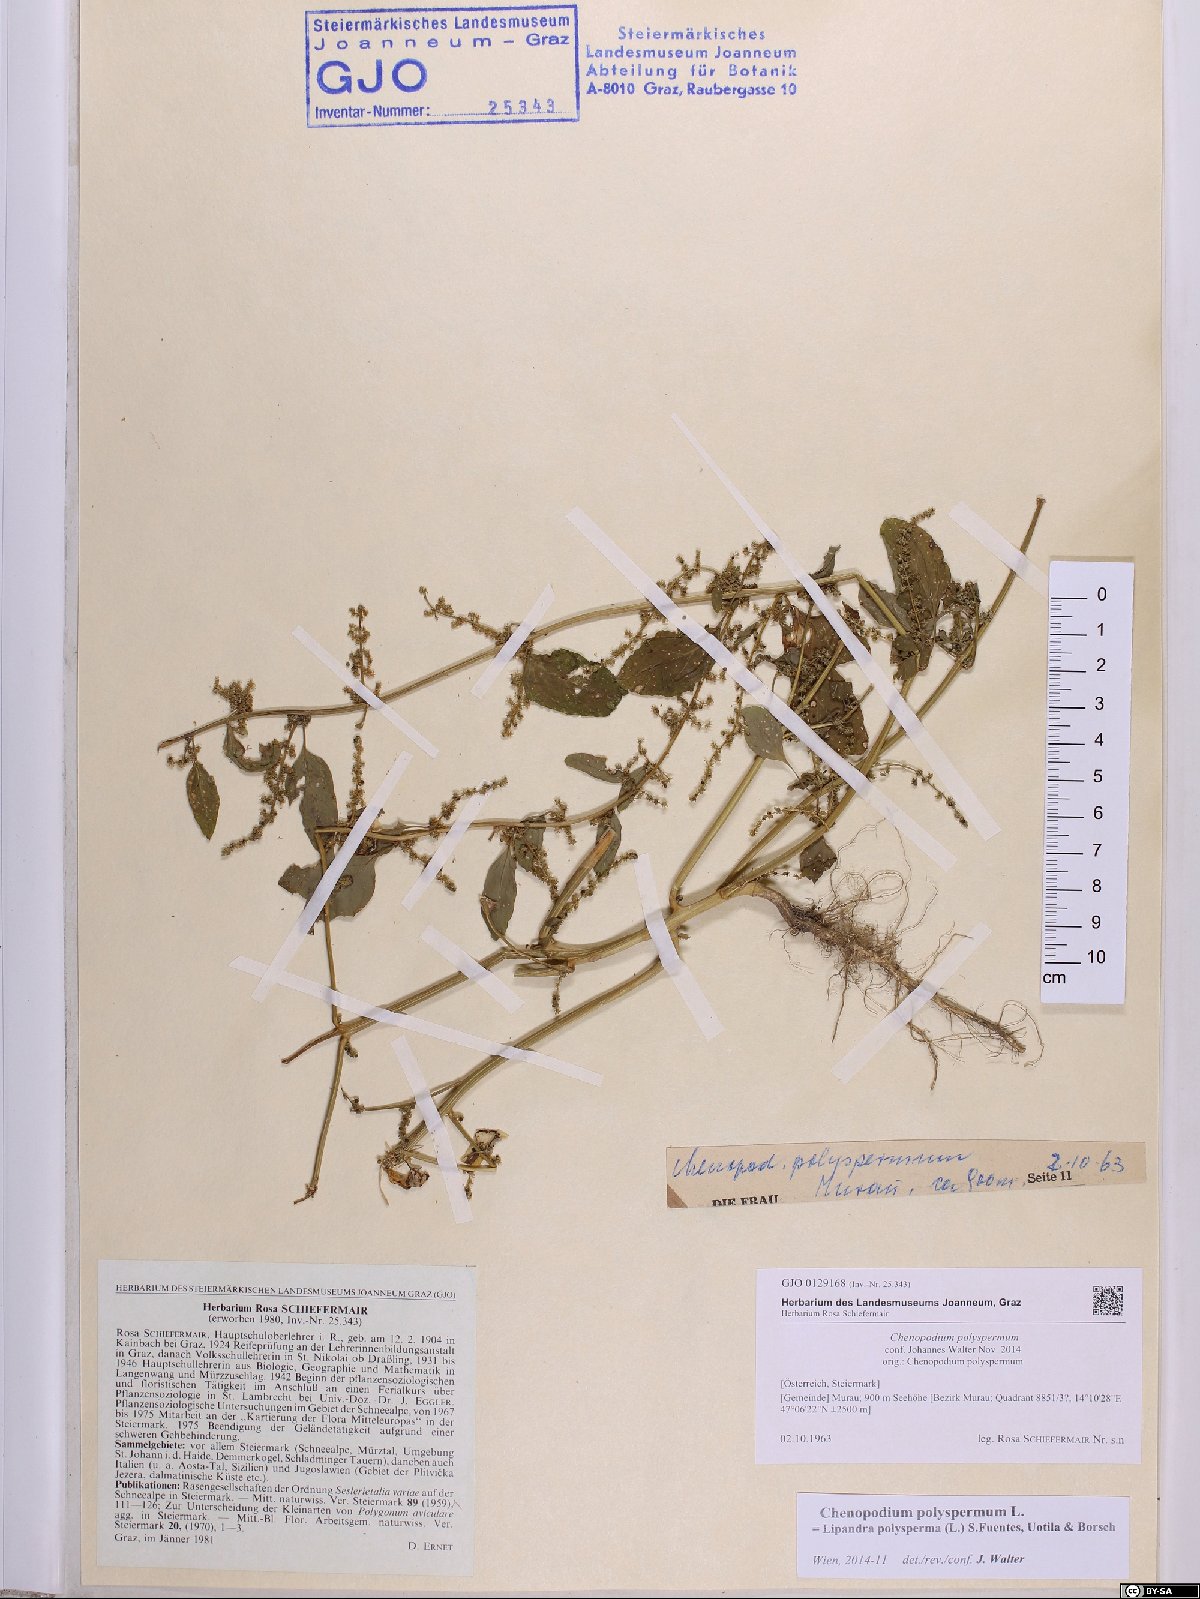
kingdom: Plantae
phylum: Tracheophyta
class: Magnoliopsida
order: Caryophyllales
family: Amaranthaceae
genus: Lipandra
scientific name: Lipandra polysperma
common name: Many-seed goosefoot
